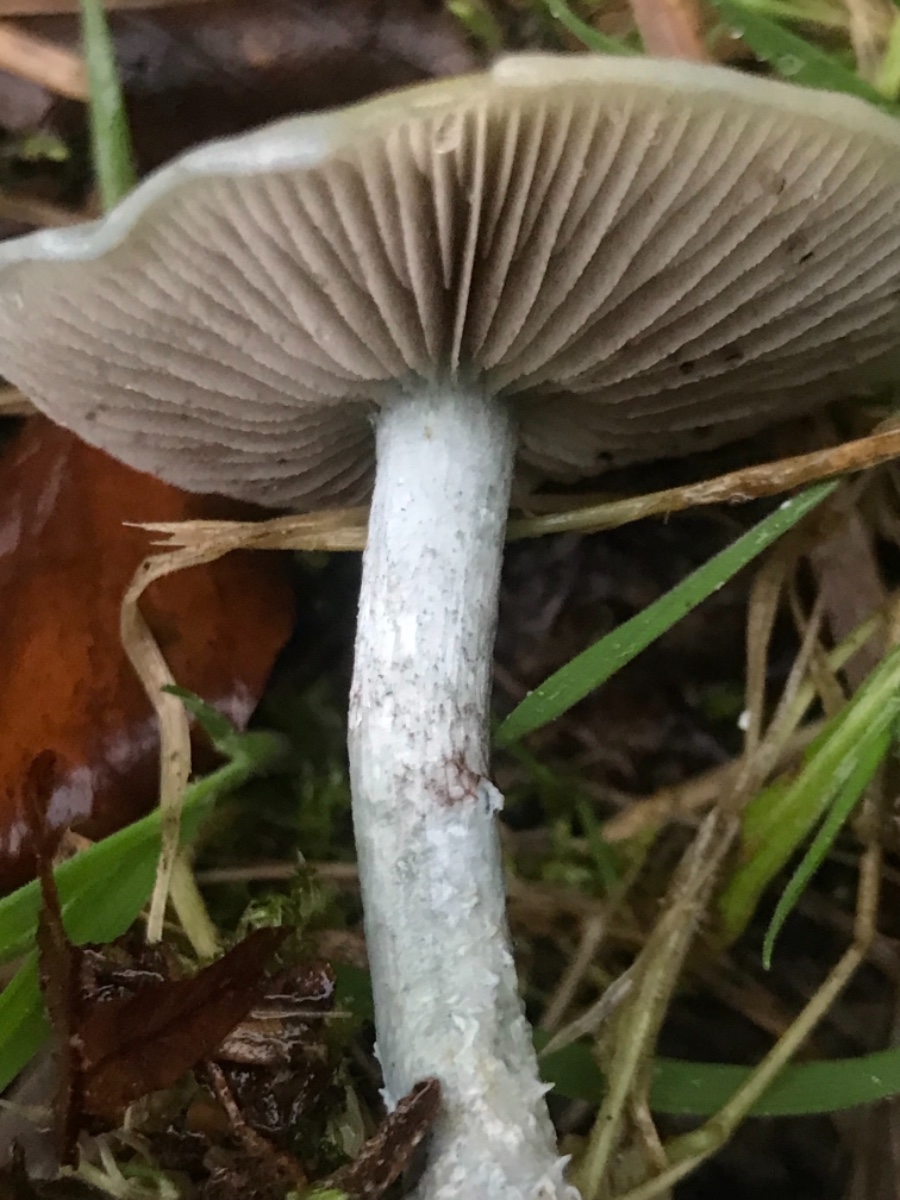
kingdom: Fungi
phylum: Basidiomycota
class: Agaricomycetes
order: Agaricales
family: Strophariaceae
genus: Stropharia
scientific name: Stropharia cyanea
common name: blågrøn bredblad
